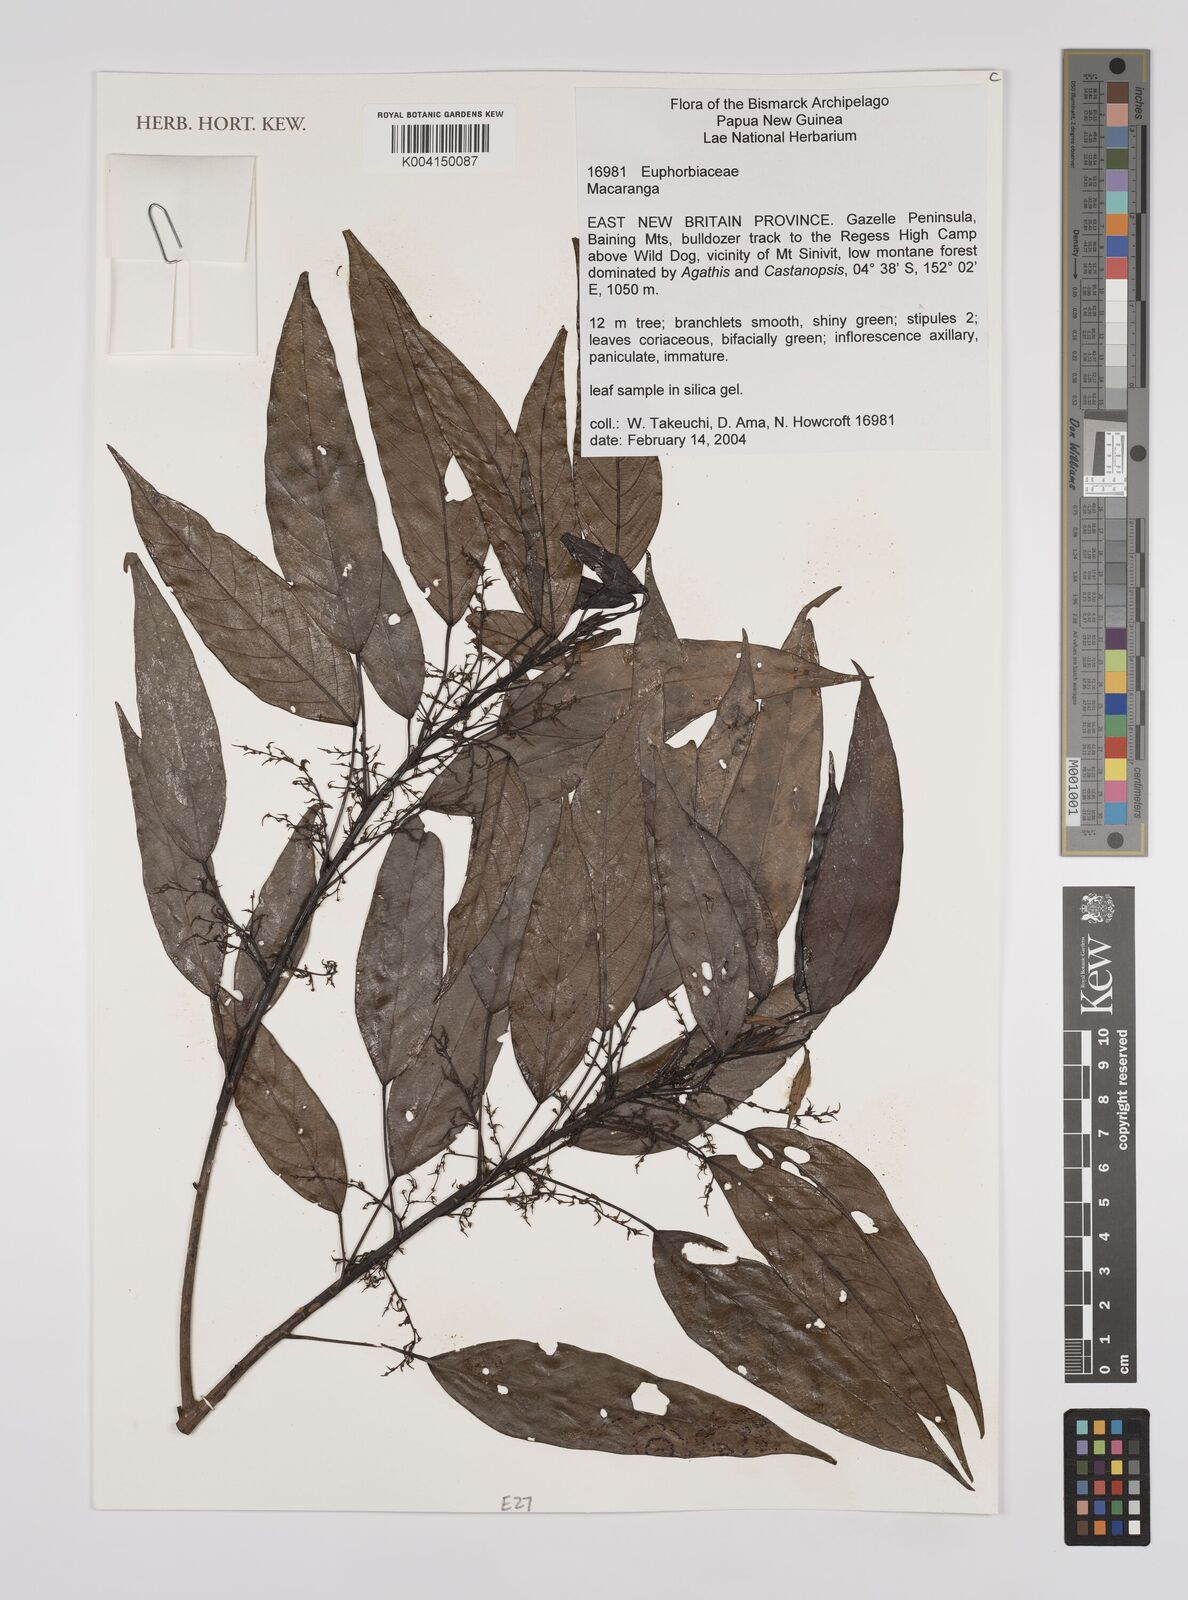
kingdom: Plantae
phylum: Tracheophyta
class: Magnoliopsida
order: Malpighiales
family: Euphorbiaceae
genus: Macaranga
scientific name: Macaranga
